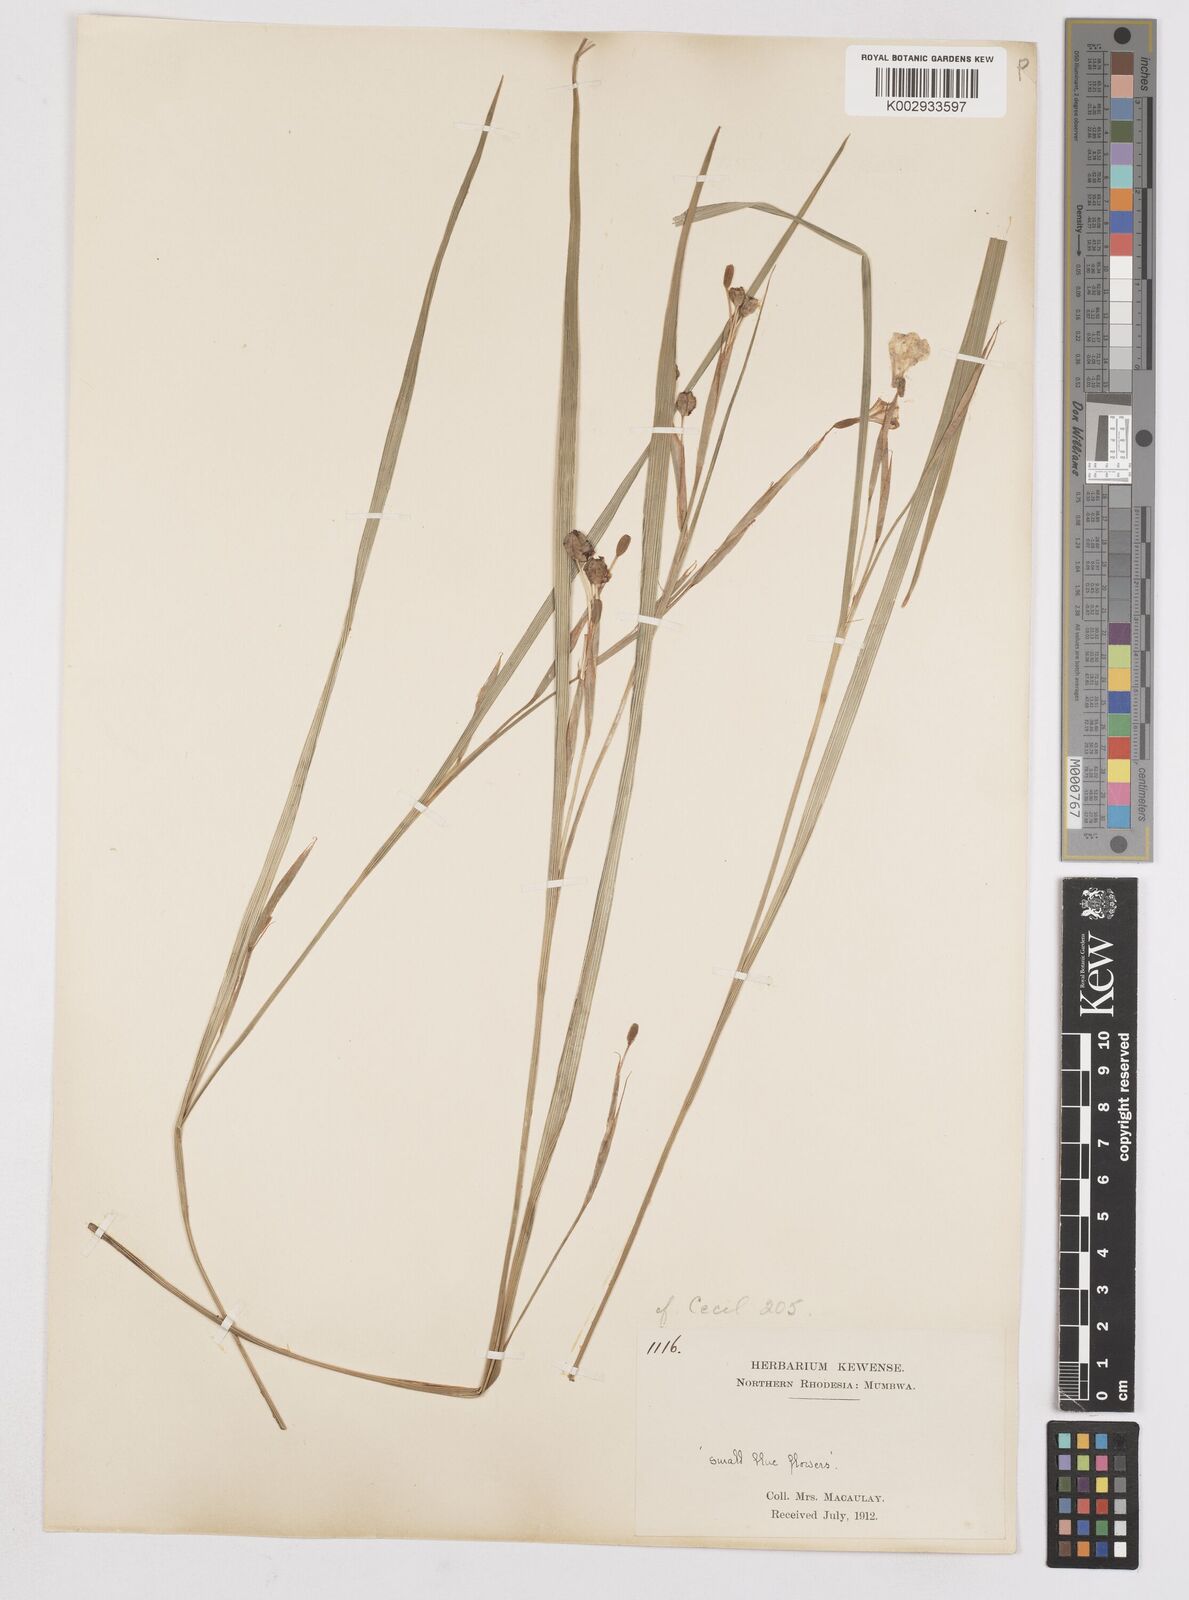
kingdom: Plantae
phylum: Tracheophyta
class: Liliopsida
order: Asparagales
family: Iridaceae
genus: Moraea
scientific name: Moraea carsonii
